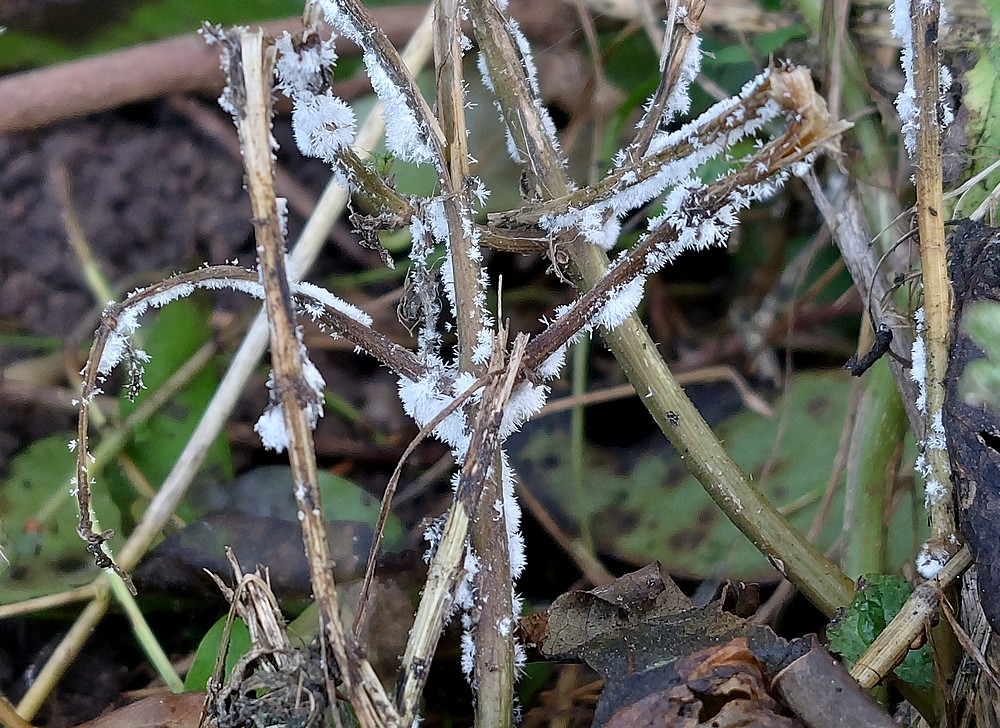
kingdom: Fungi
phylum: Ascomycota
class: Sordariomycetes
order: Boliniales
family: Catabotrydaceae
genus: Botryosporium
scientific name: Botryosporium pulchrum
